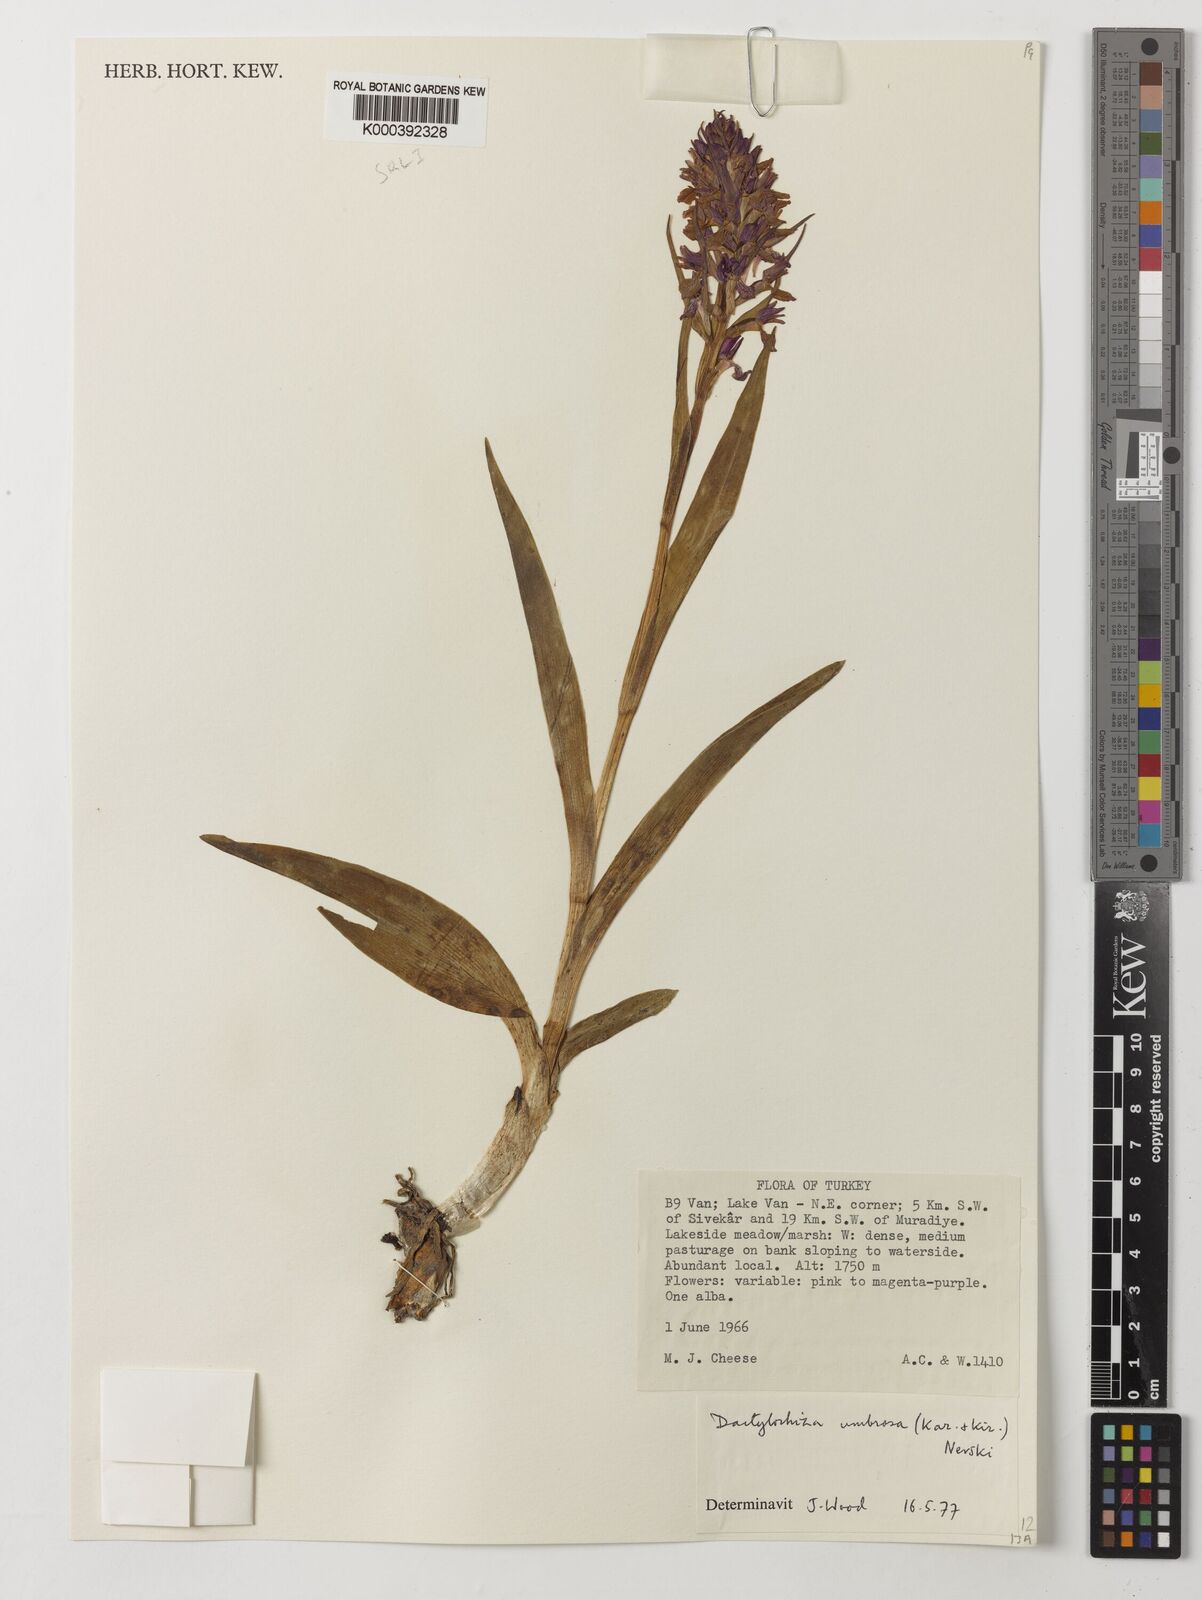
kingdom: Plantae
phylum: Tracheophyta
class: Liliopsida
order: Asparagales
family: Orchidaceae
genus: Dactylorhiza
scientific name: Dactylorhiza
